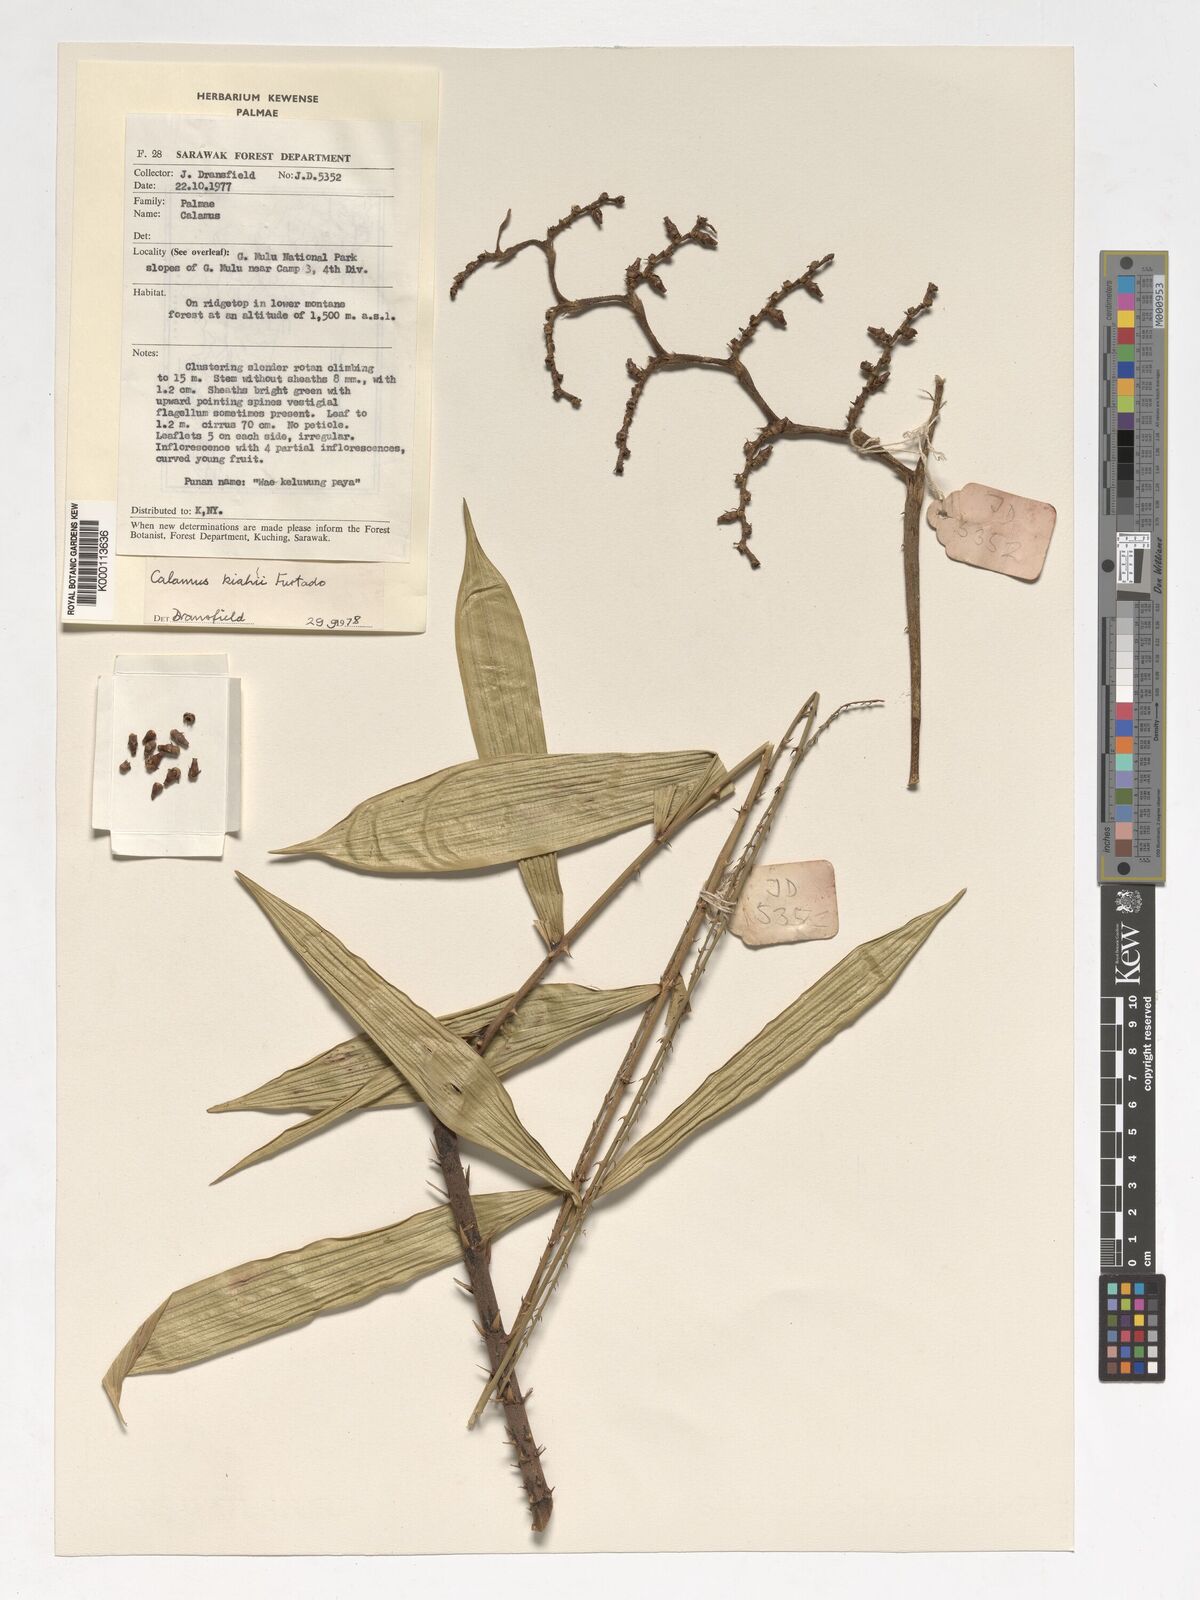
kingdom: Plantae
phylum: Tracheophyta
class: Liliopsida
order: Arecales
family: Arecaceae
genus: Calamus
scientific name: Calamus plicatus
